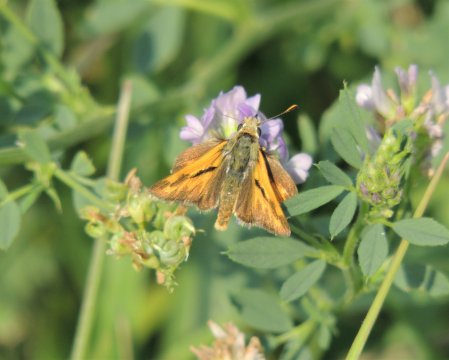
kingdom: Animalia
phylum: Arthropoda
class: Insecta
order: Lepidoptera
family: Hesperiidae
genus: Ochlodes
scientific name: Ochlodes sylvanoides
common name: Woodland Skipper
